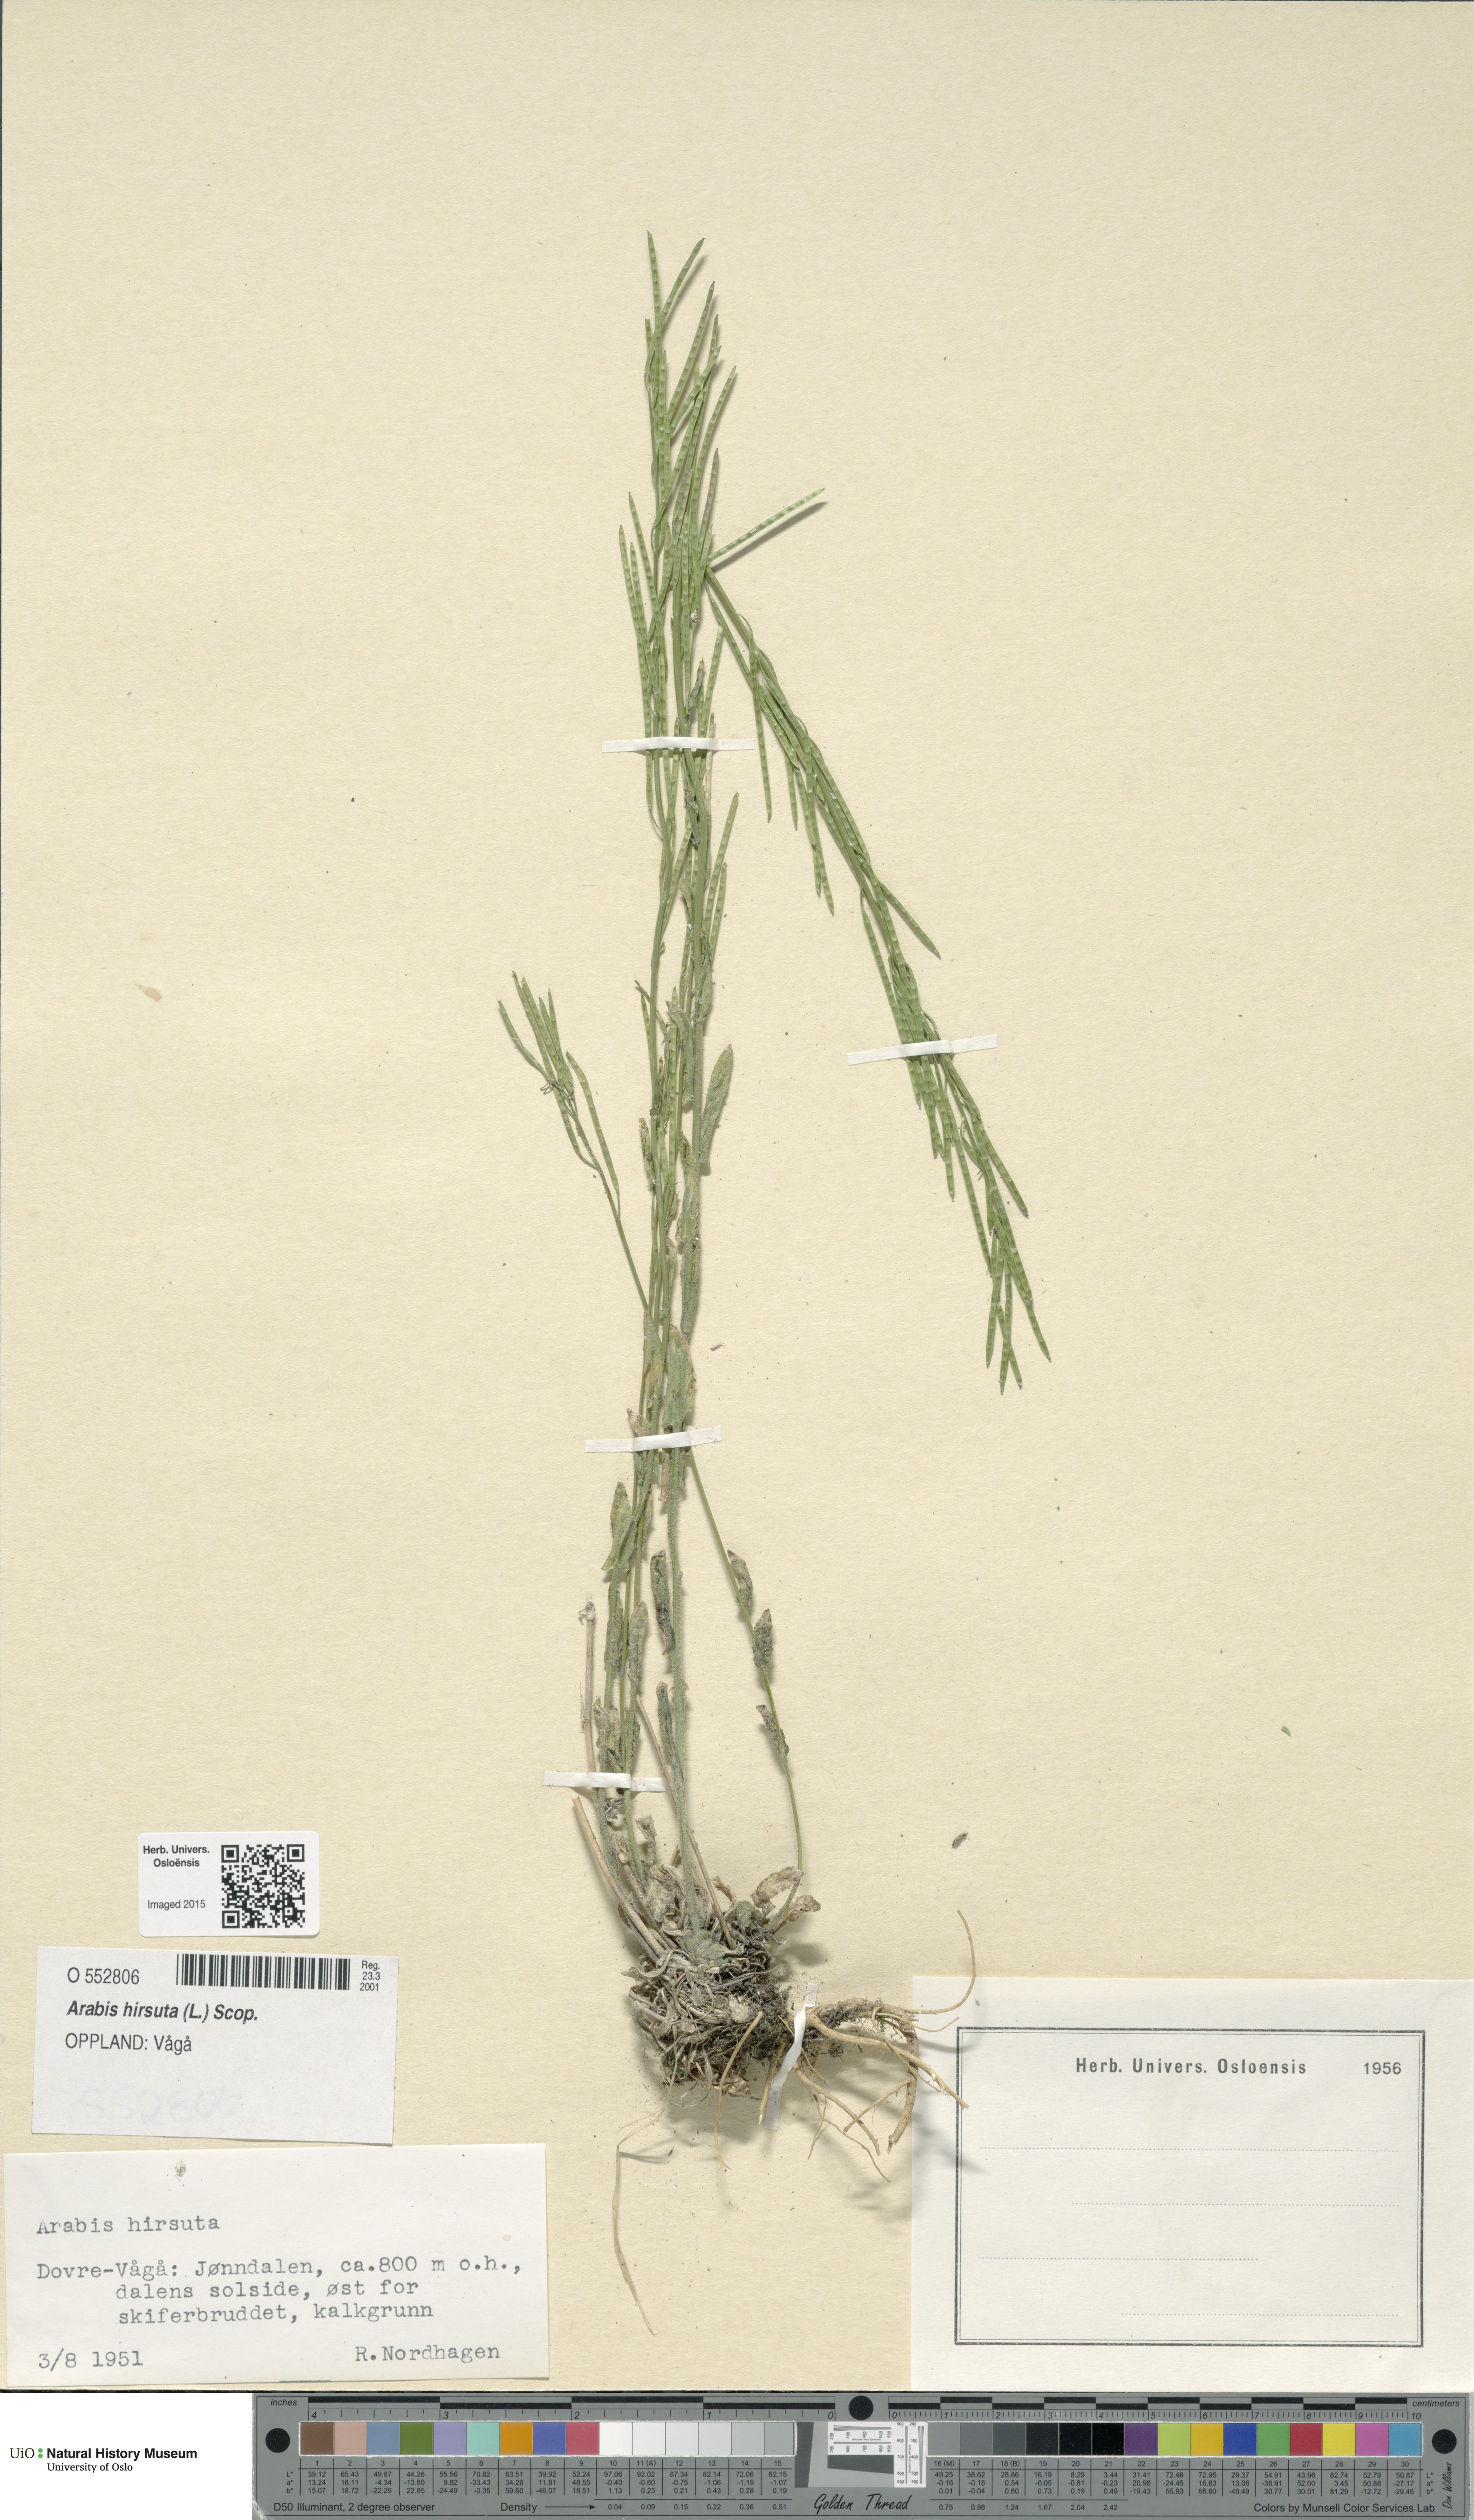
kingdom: Plantae
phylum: Tracheophyta
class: Magnoliopsida
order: Brassicales
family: Brassicaceae
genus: Arabis
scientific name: Arabis hirsuta
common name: Hairy rock-cress
